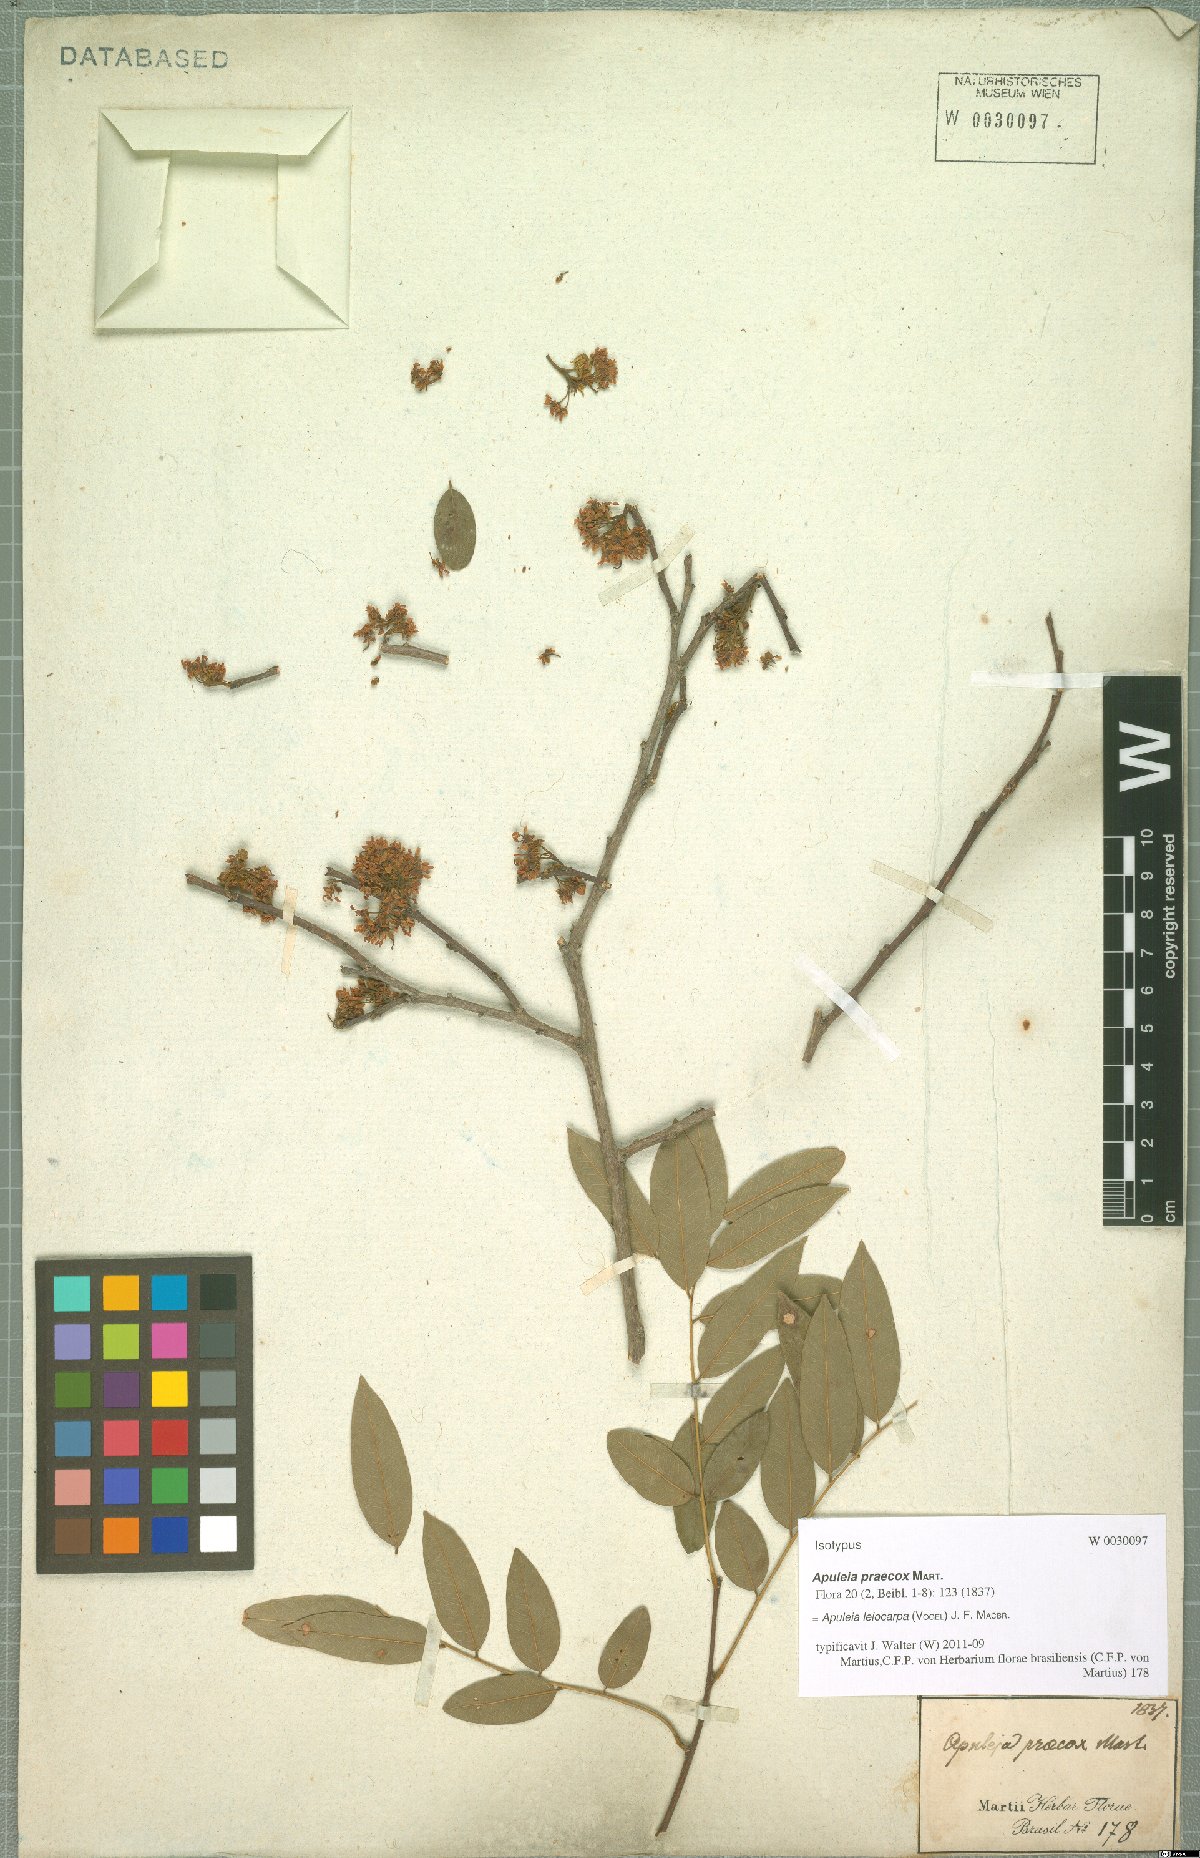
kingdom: Plantae
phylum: Tracheophyta
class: Magnoliopsida
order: Fabales
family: Fabaceae
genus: Apuleia
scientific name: Apuleia leiocarpa
